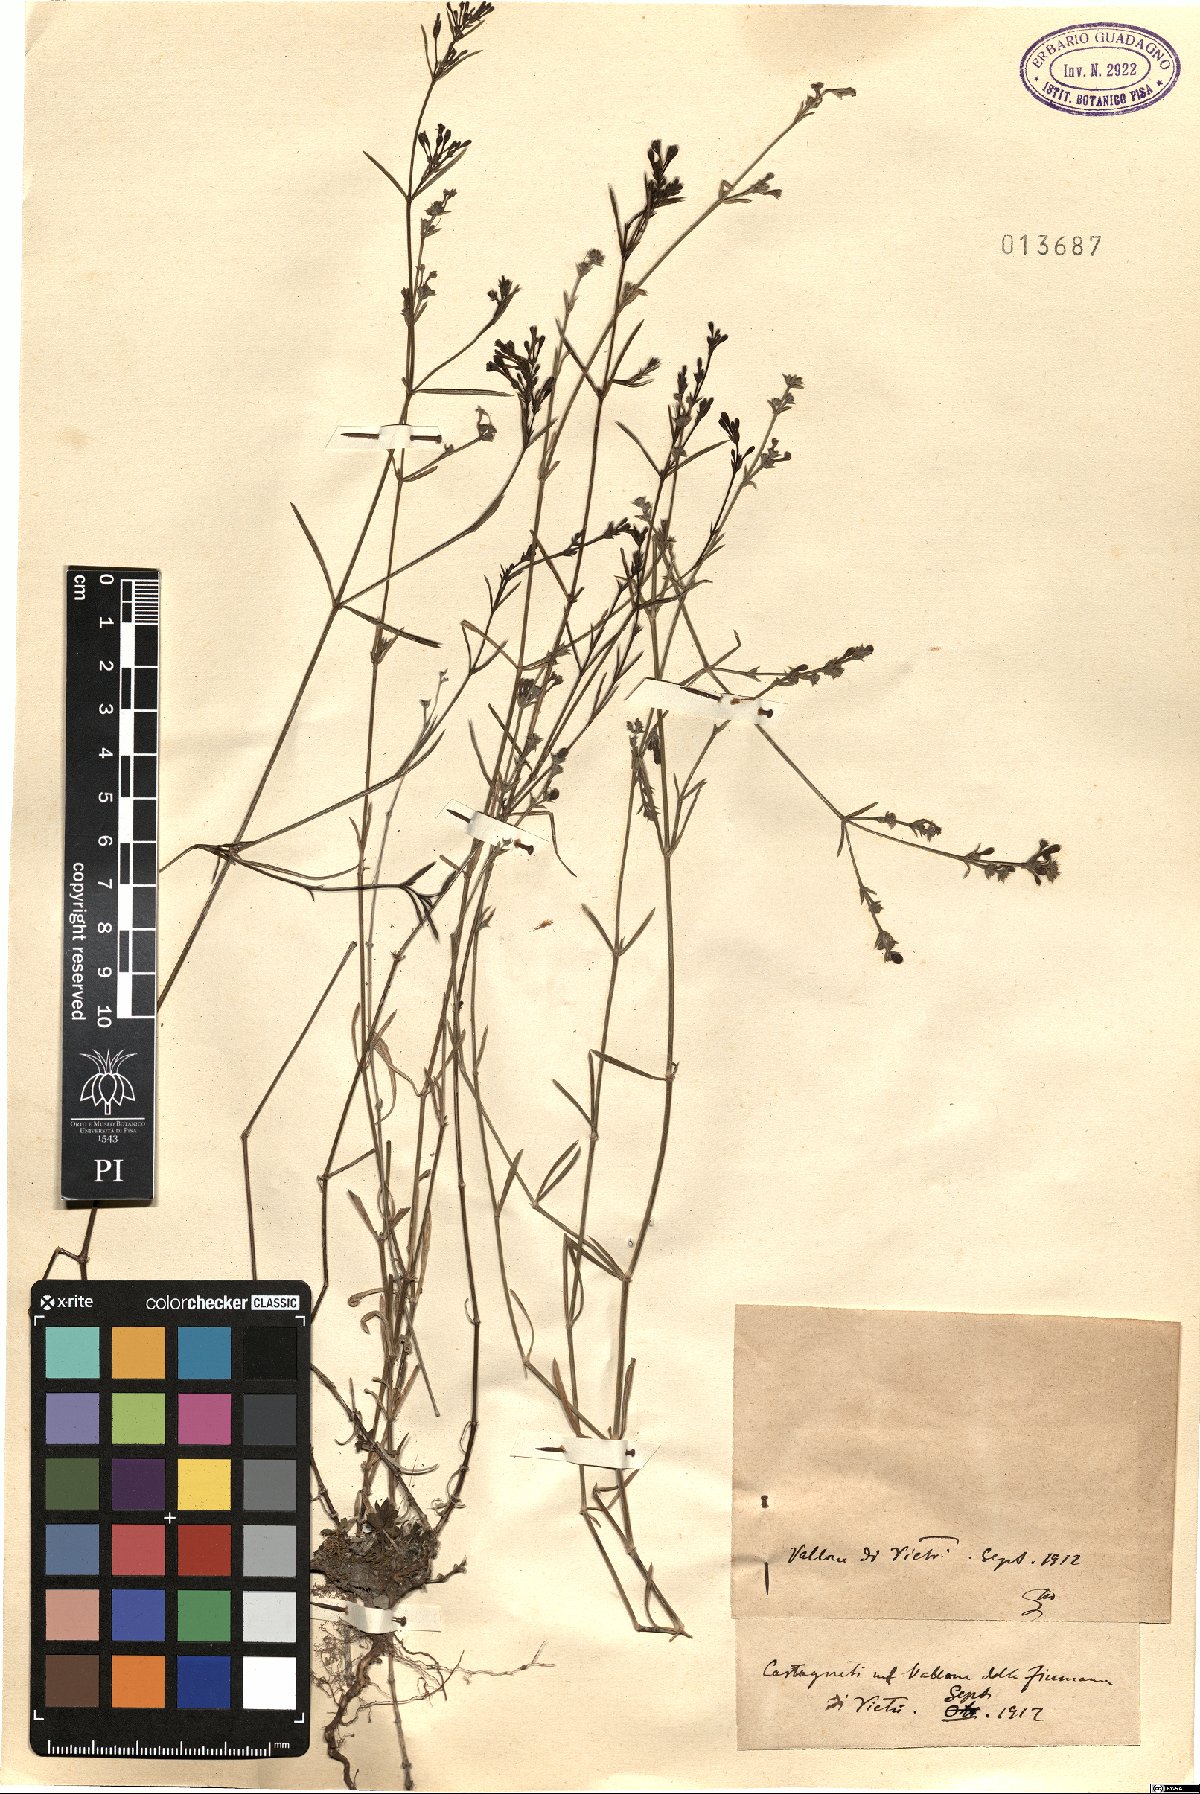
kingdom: Plantae
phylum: Tracheophyta
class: Magnoliopsida
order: Gentianales
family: Rubiaceae
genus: Asperula
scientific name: Asperula
